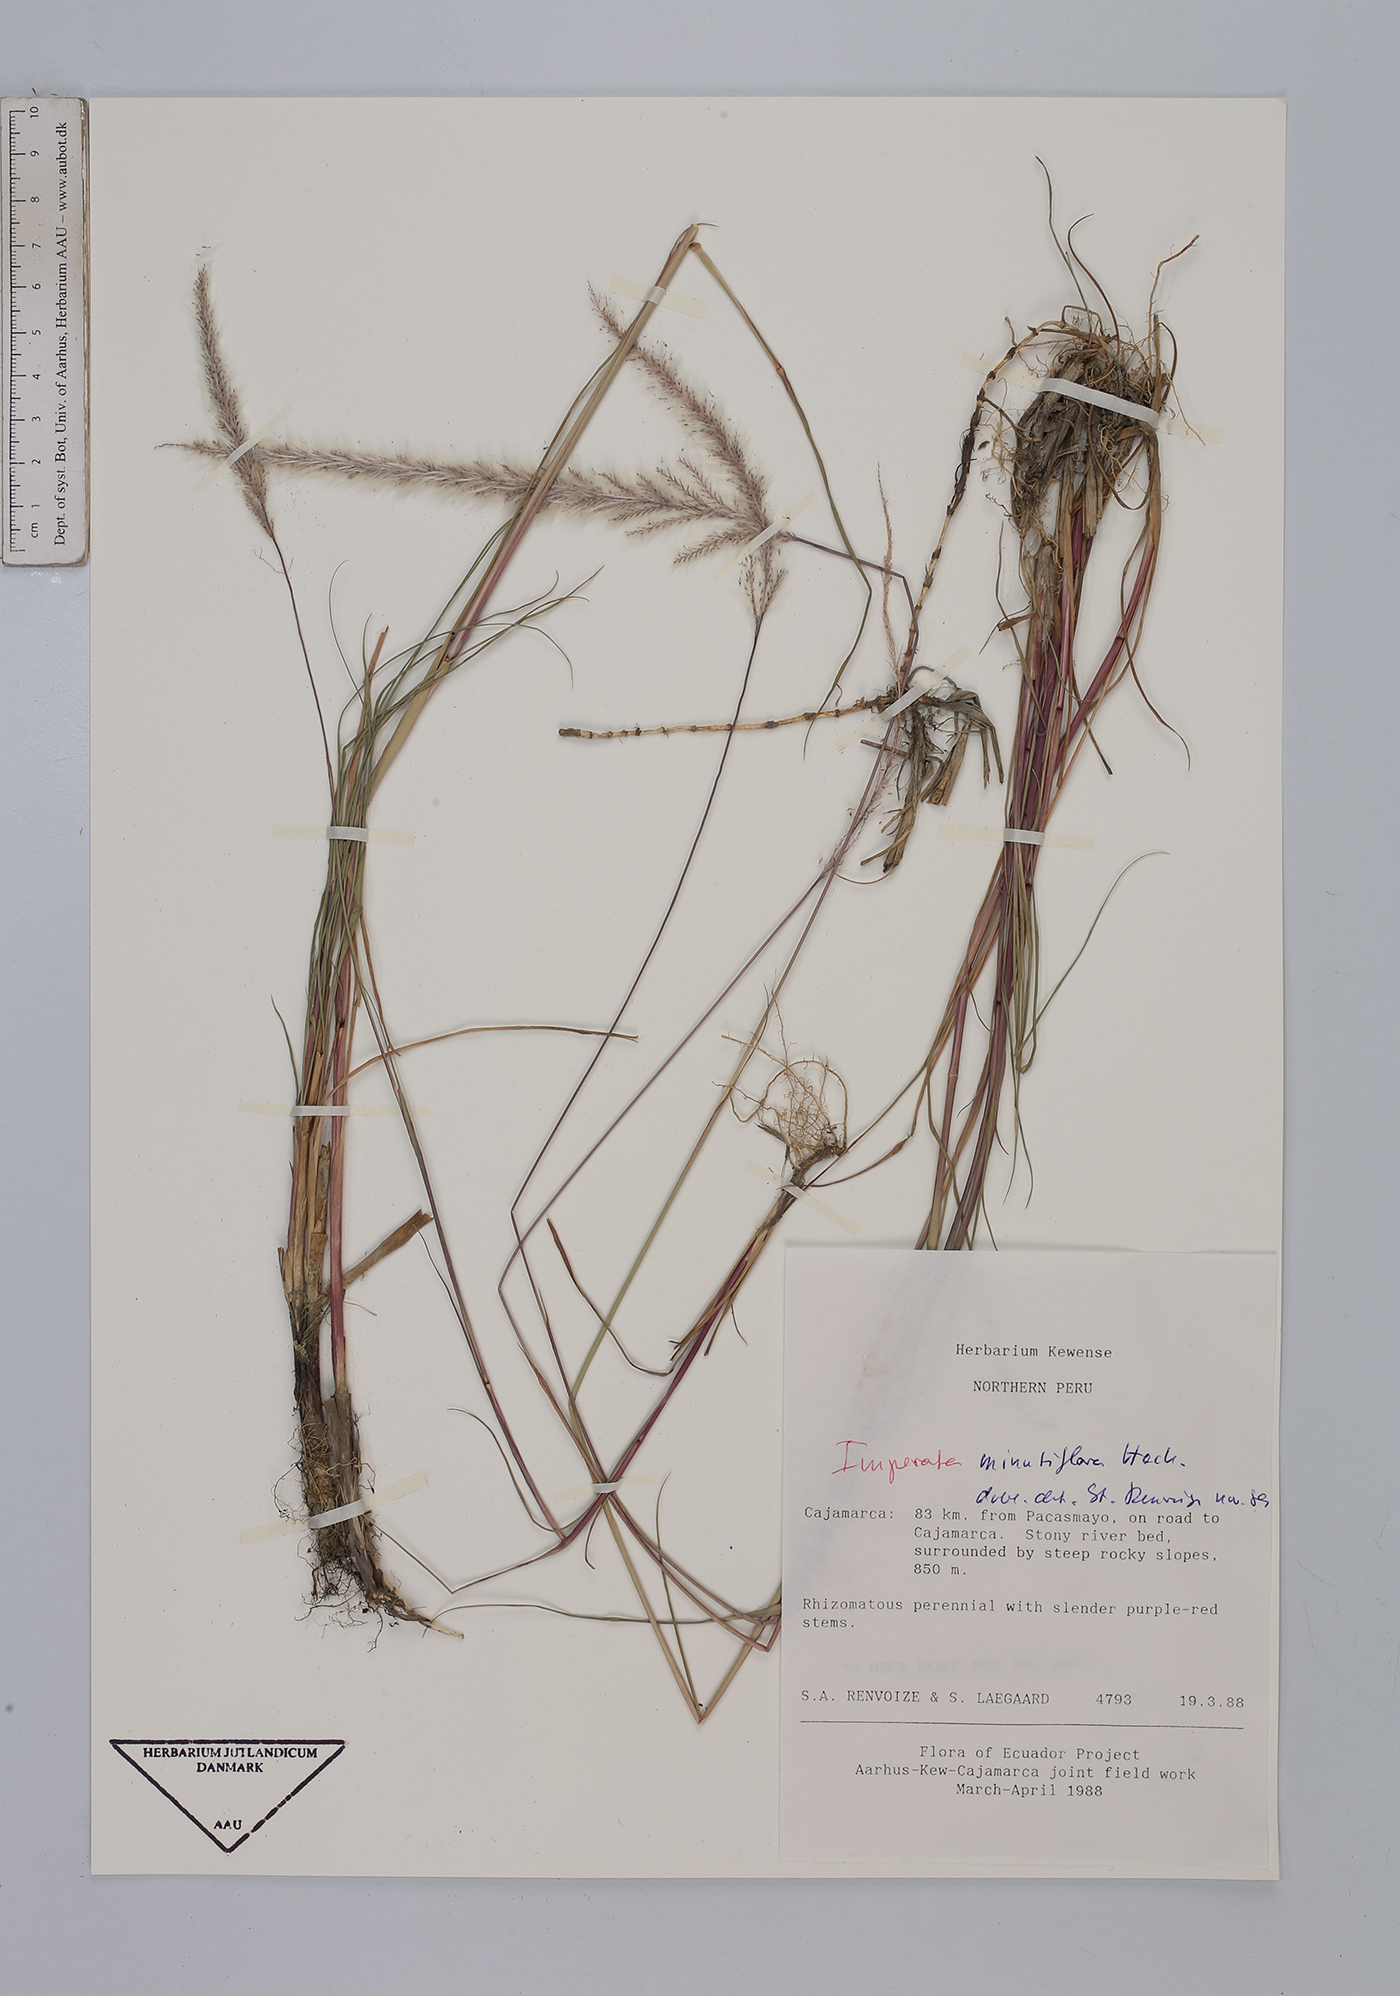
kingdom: Plantae
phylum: Tracheophyta
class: Liliopsida
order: Poales
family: Poaceae
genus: Imperata
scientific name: Imperata minutiflora
